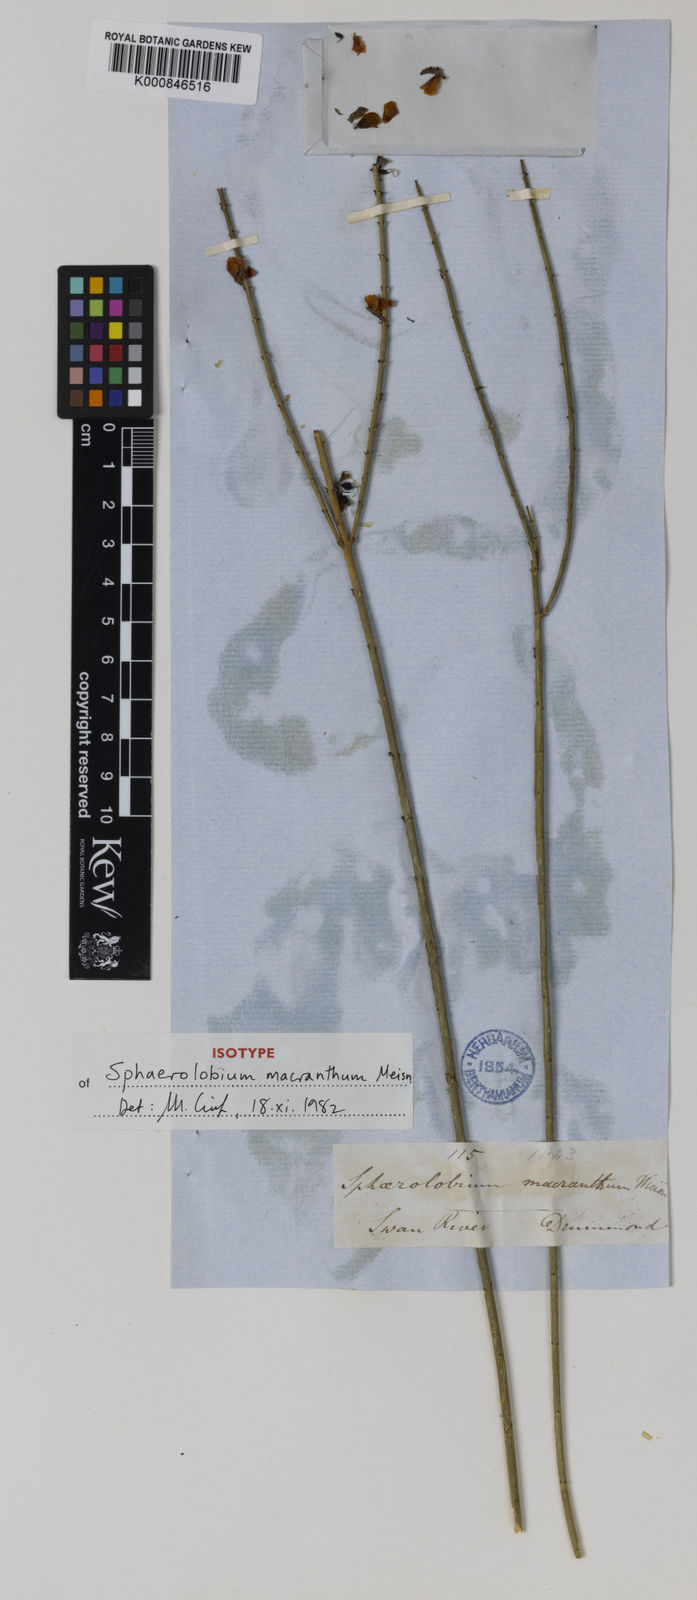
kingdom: Plantae
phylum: Tracheophyta
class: Magnoliopsida
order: Fabales
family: Fabaceae
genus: Sphaerolobium
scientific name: Sphaerolobium macranthum
